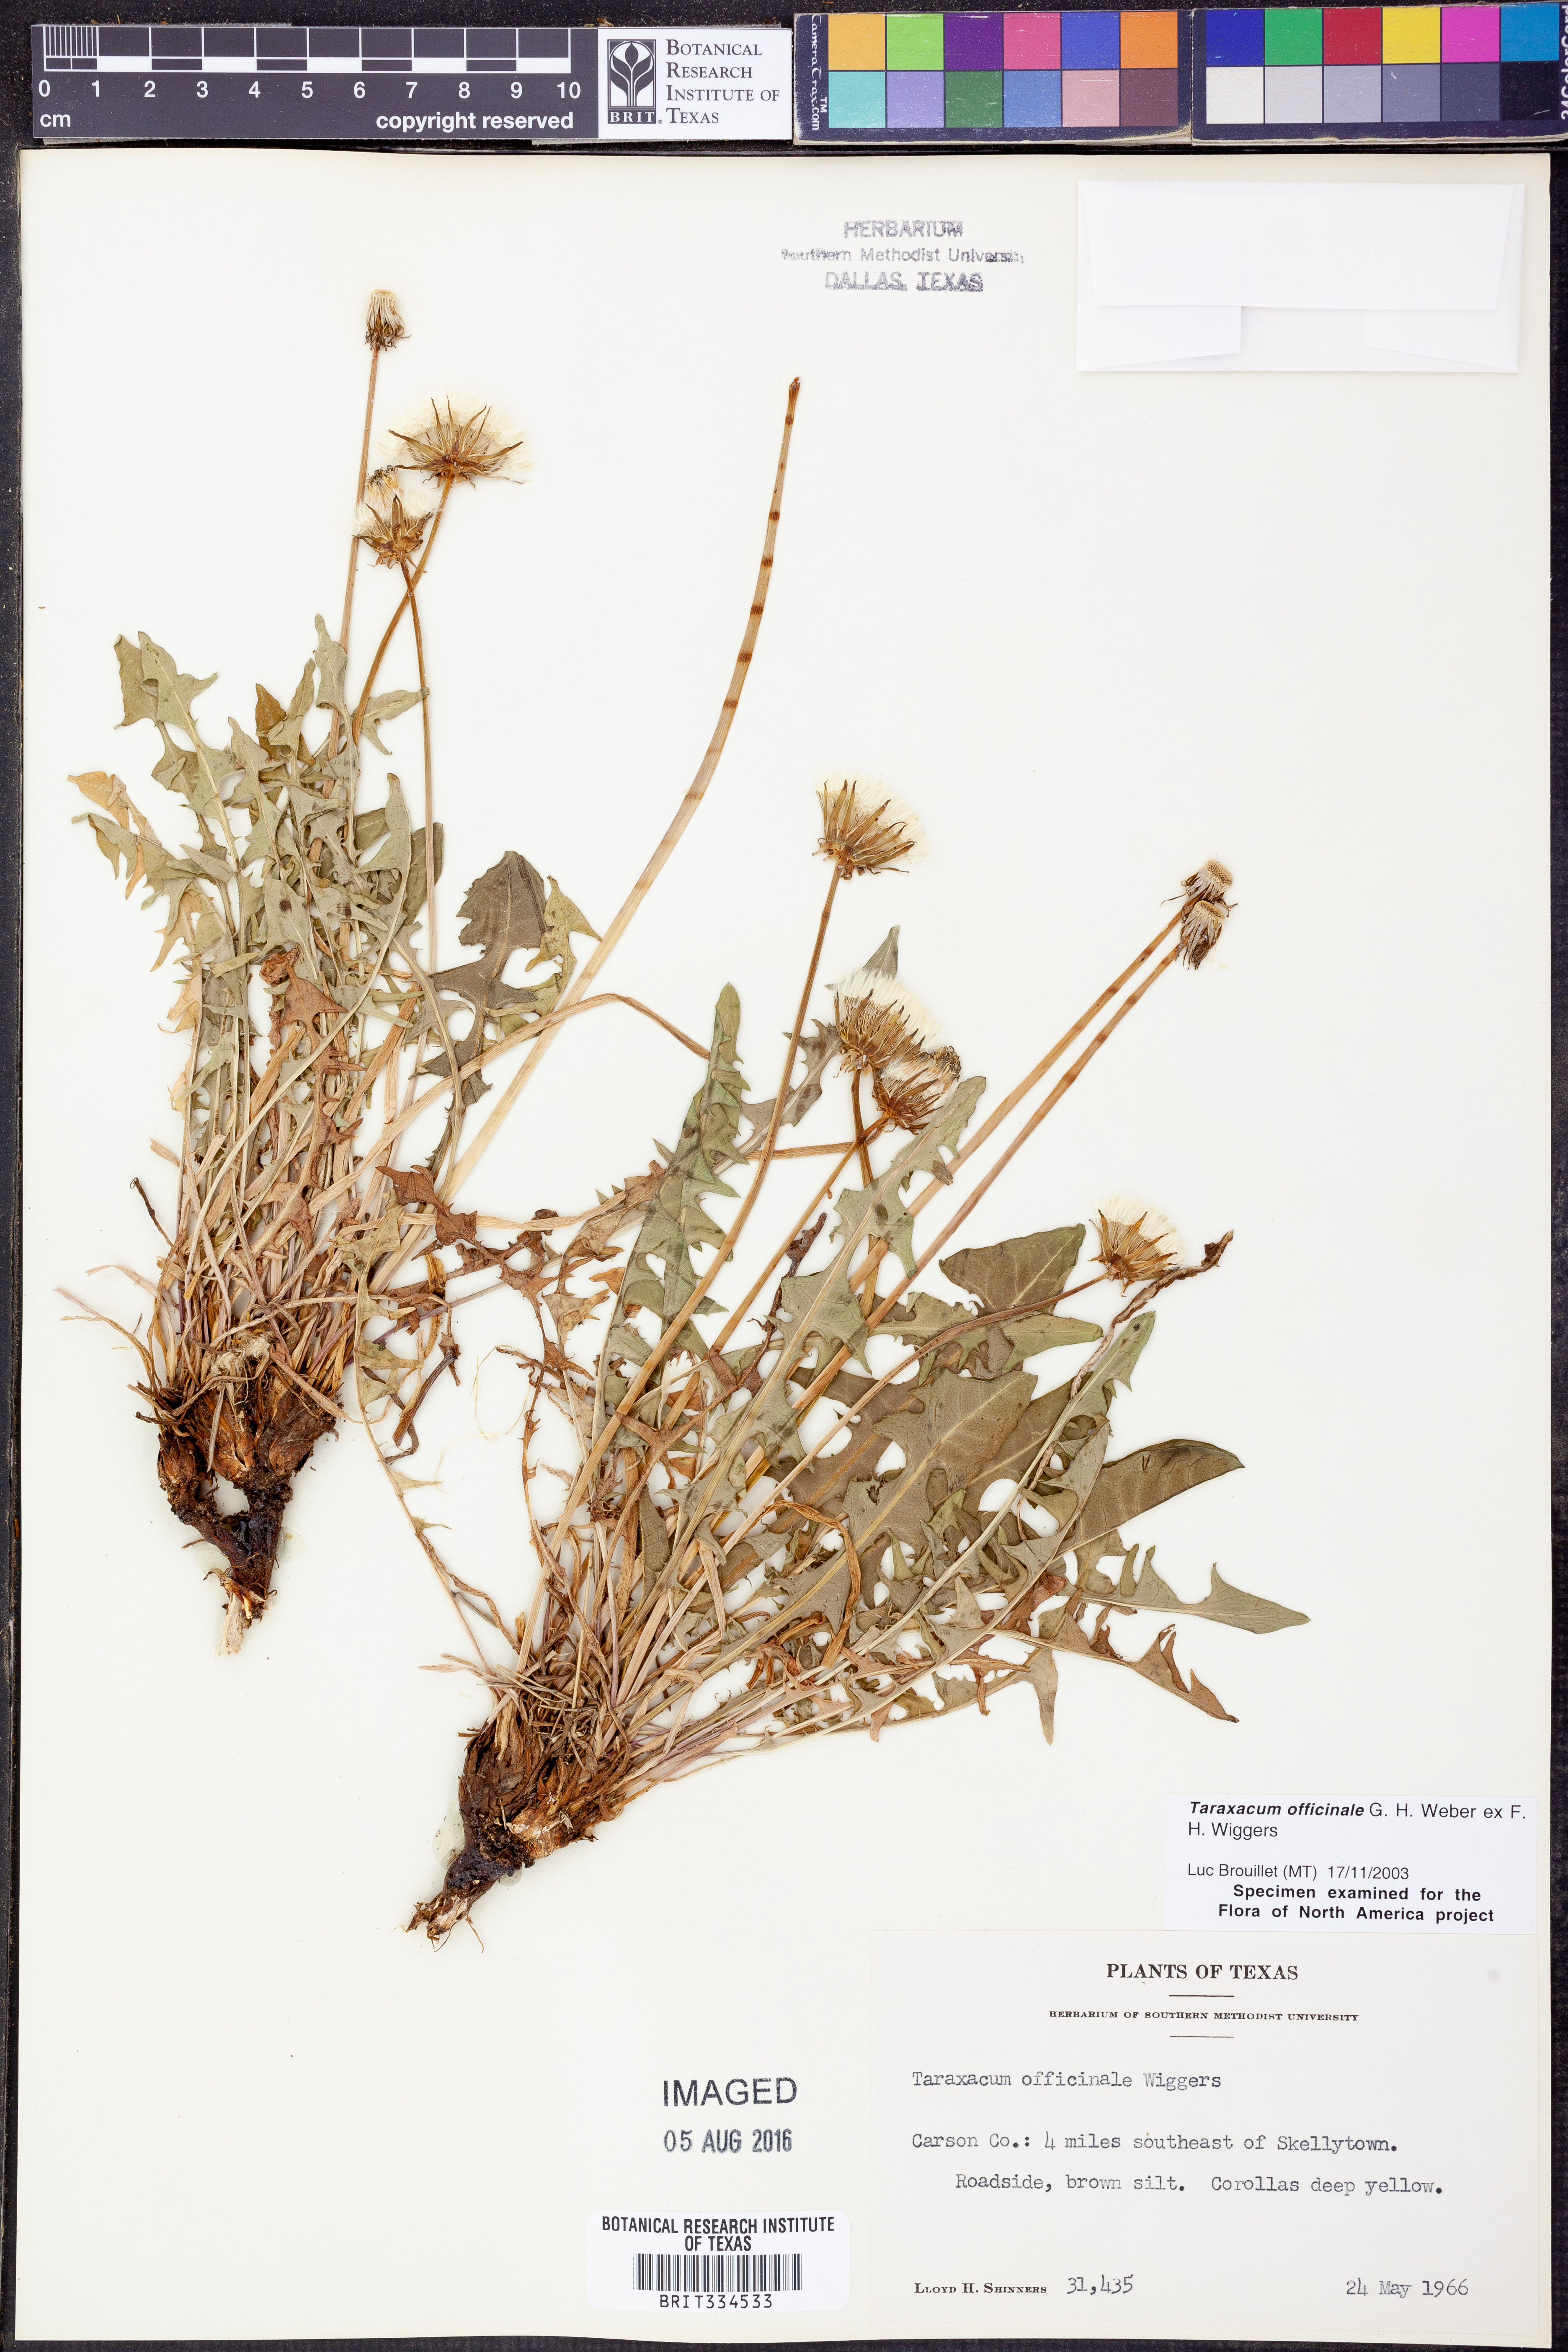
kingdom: Plantae
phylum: Tracheophyta
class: Magnoliopsida
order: Asterales
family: Asteraceae
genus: Taraxacum
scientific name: Taraxacum officinale
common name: Common dandelion
